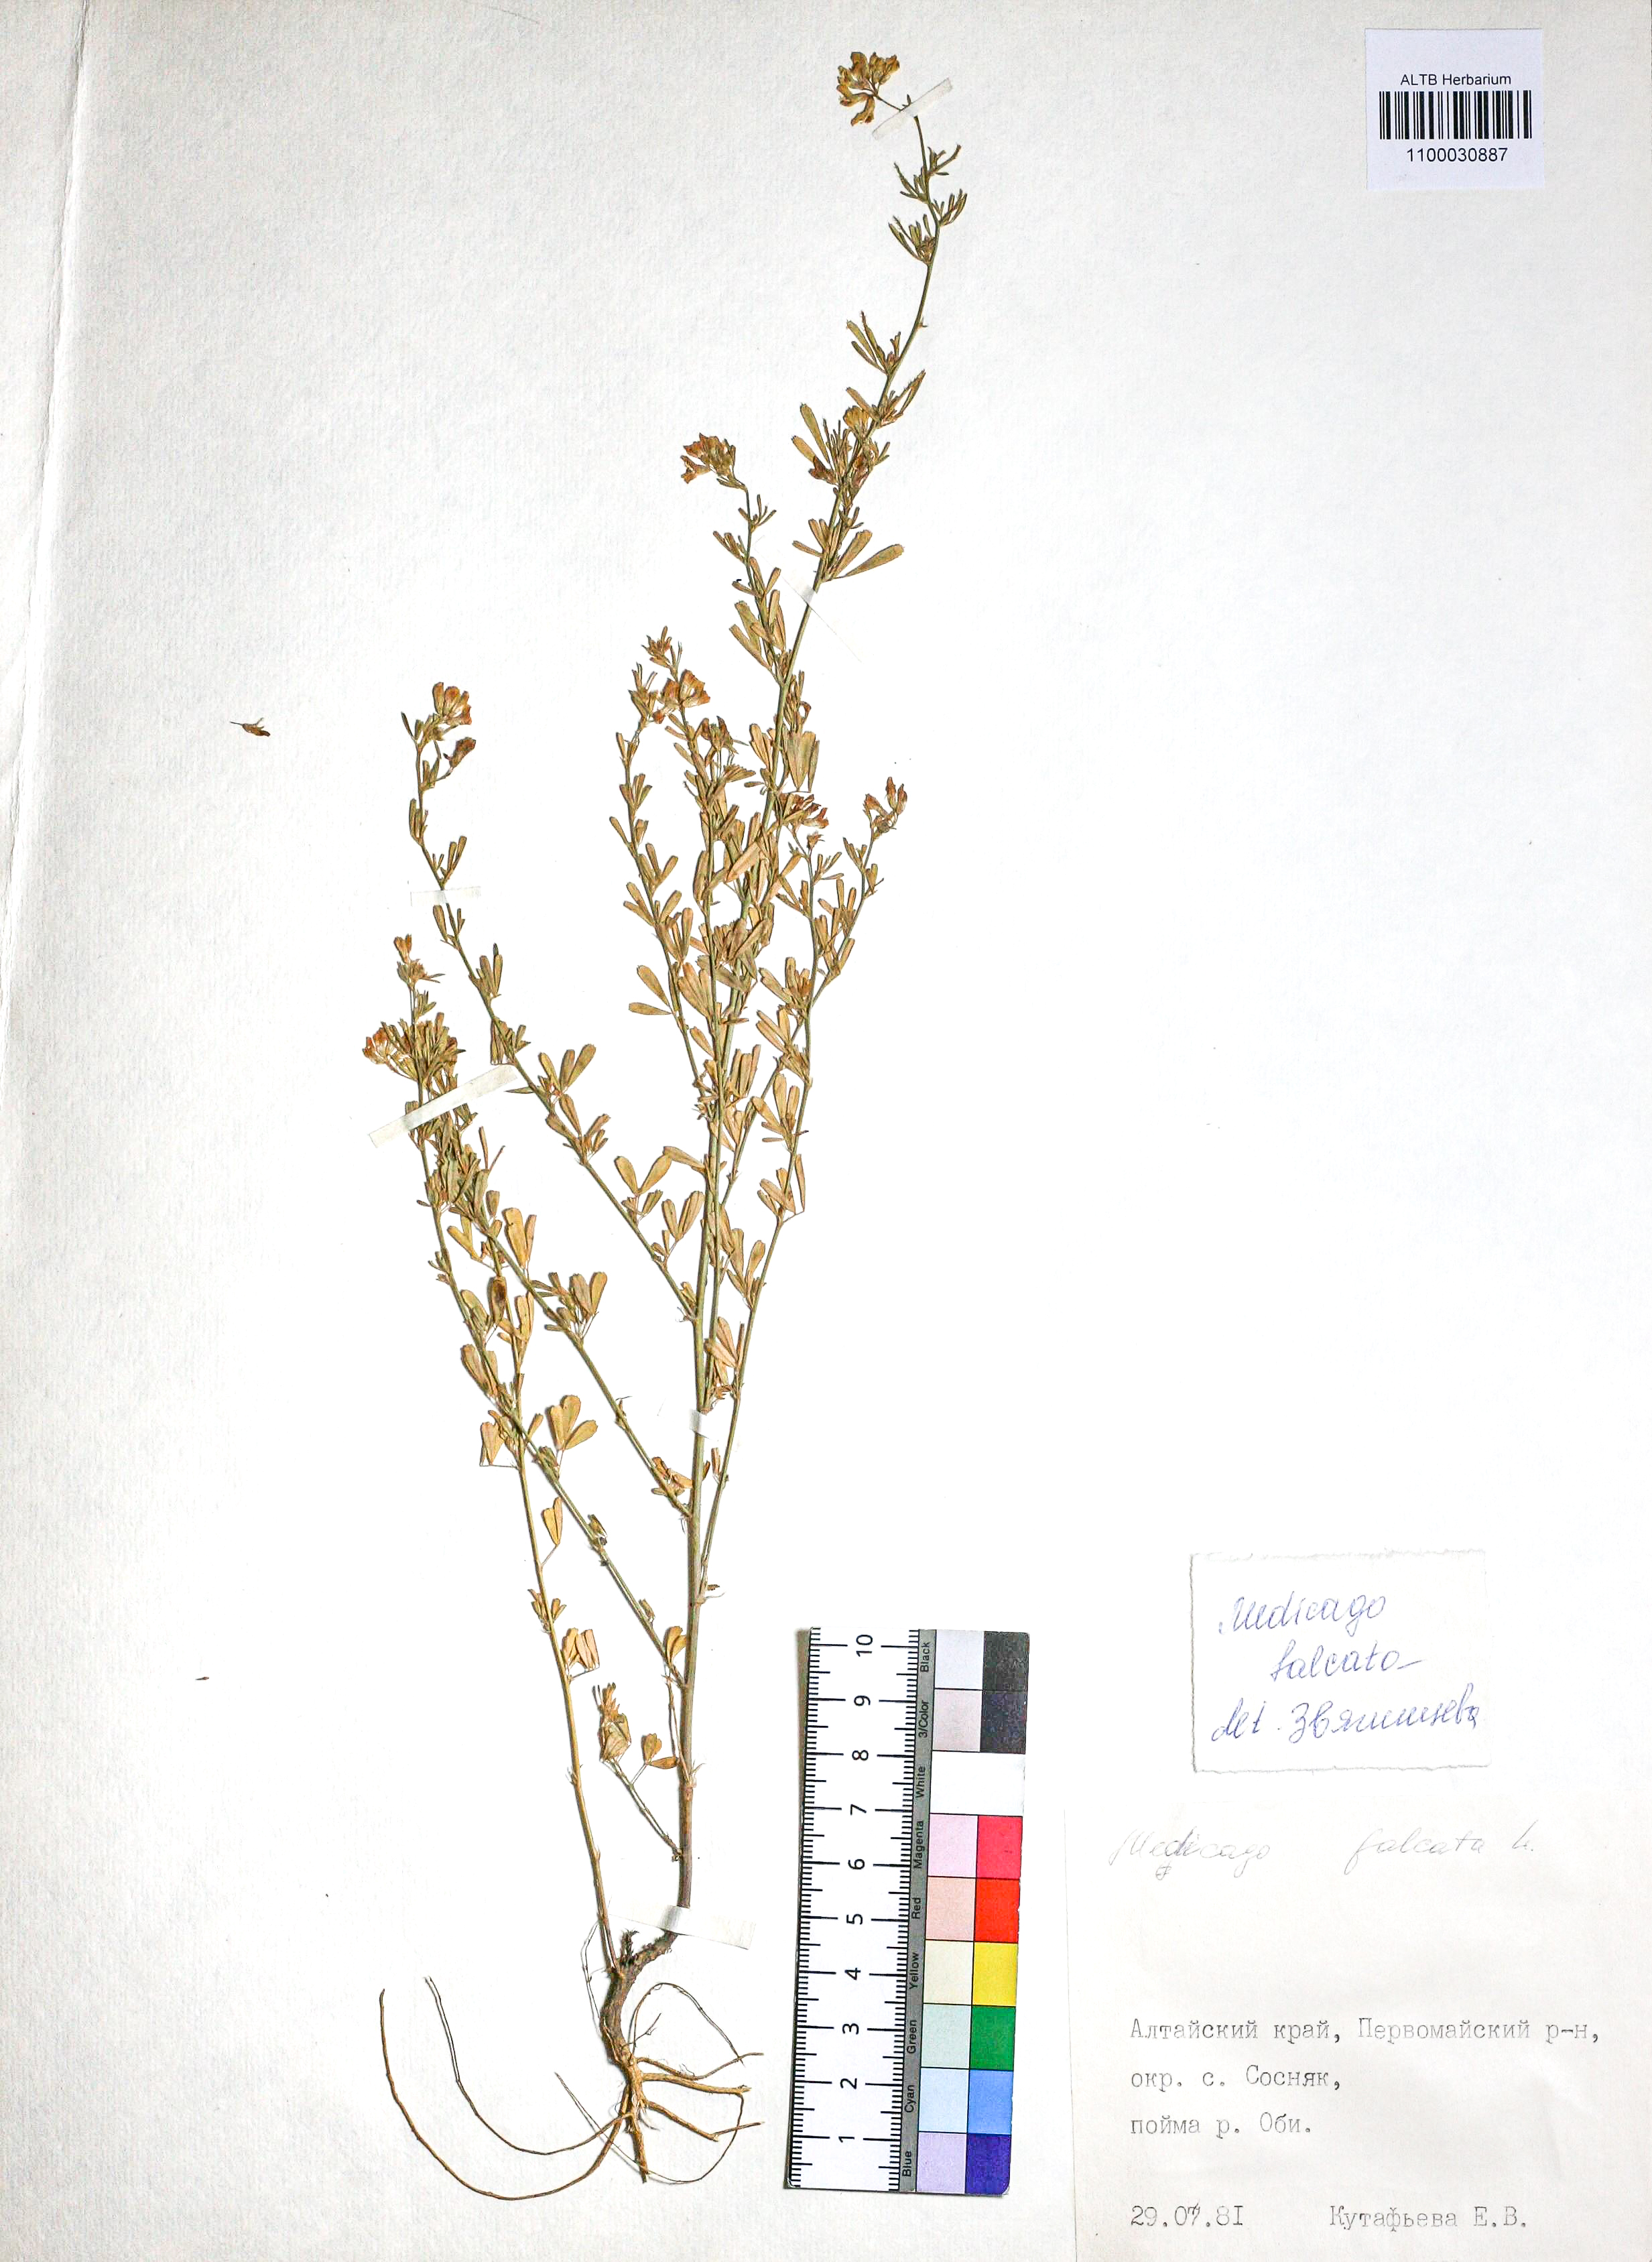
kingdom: Plantae
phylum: Tracheophyta
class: Magnoliopsida
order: Fabales
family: Fabaceae
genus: Medicago
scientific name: Medicago falcata
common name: Sickle medick
